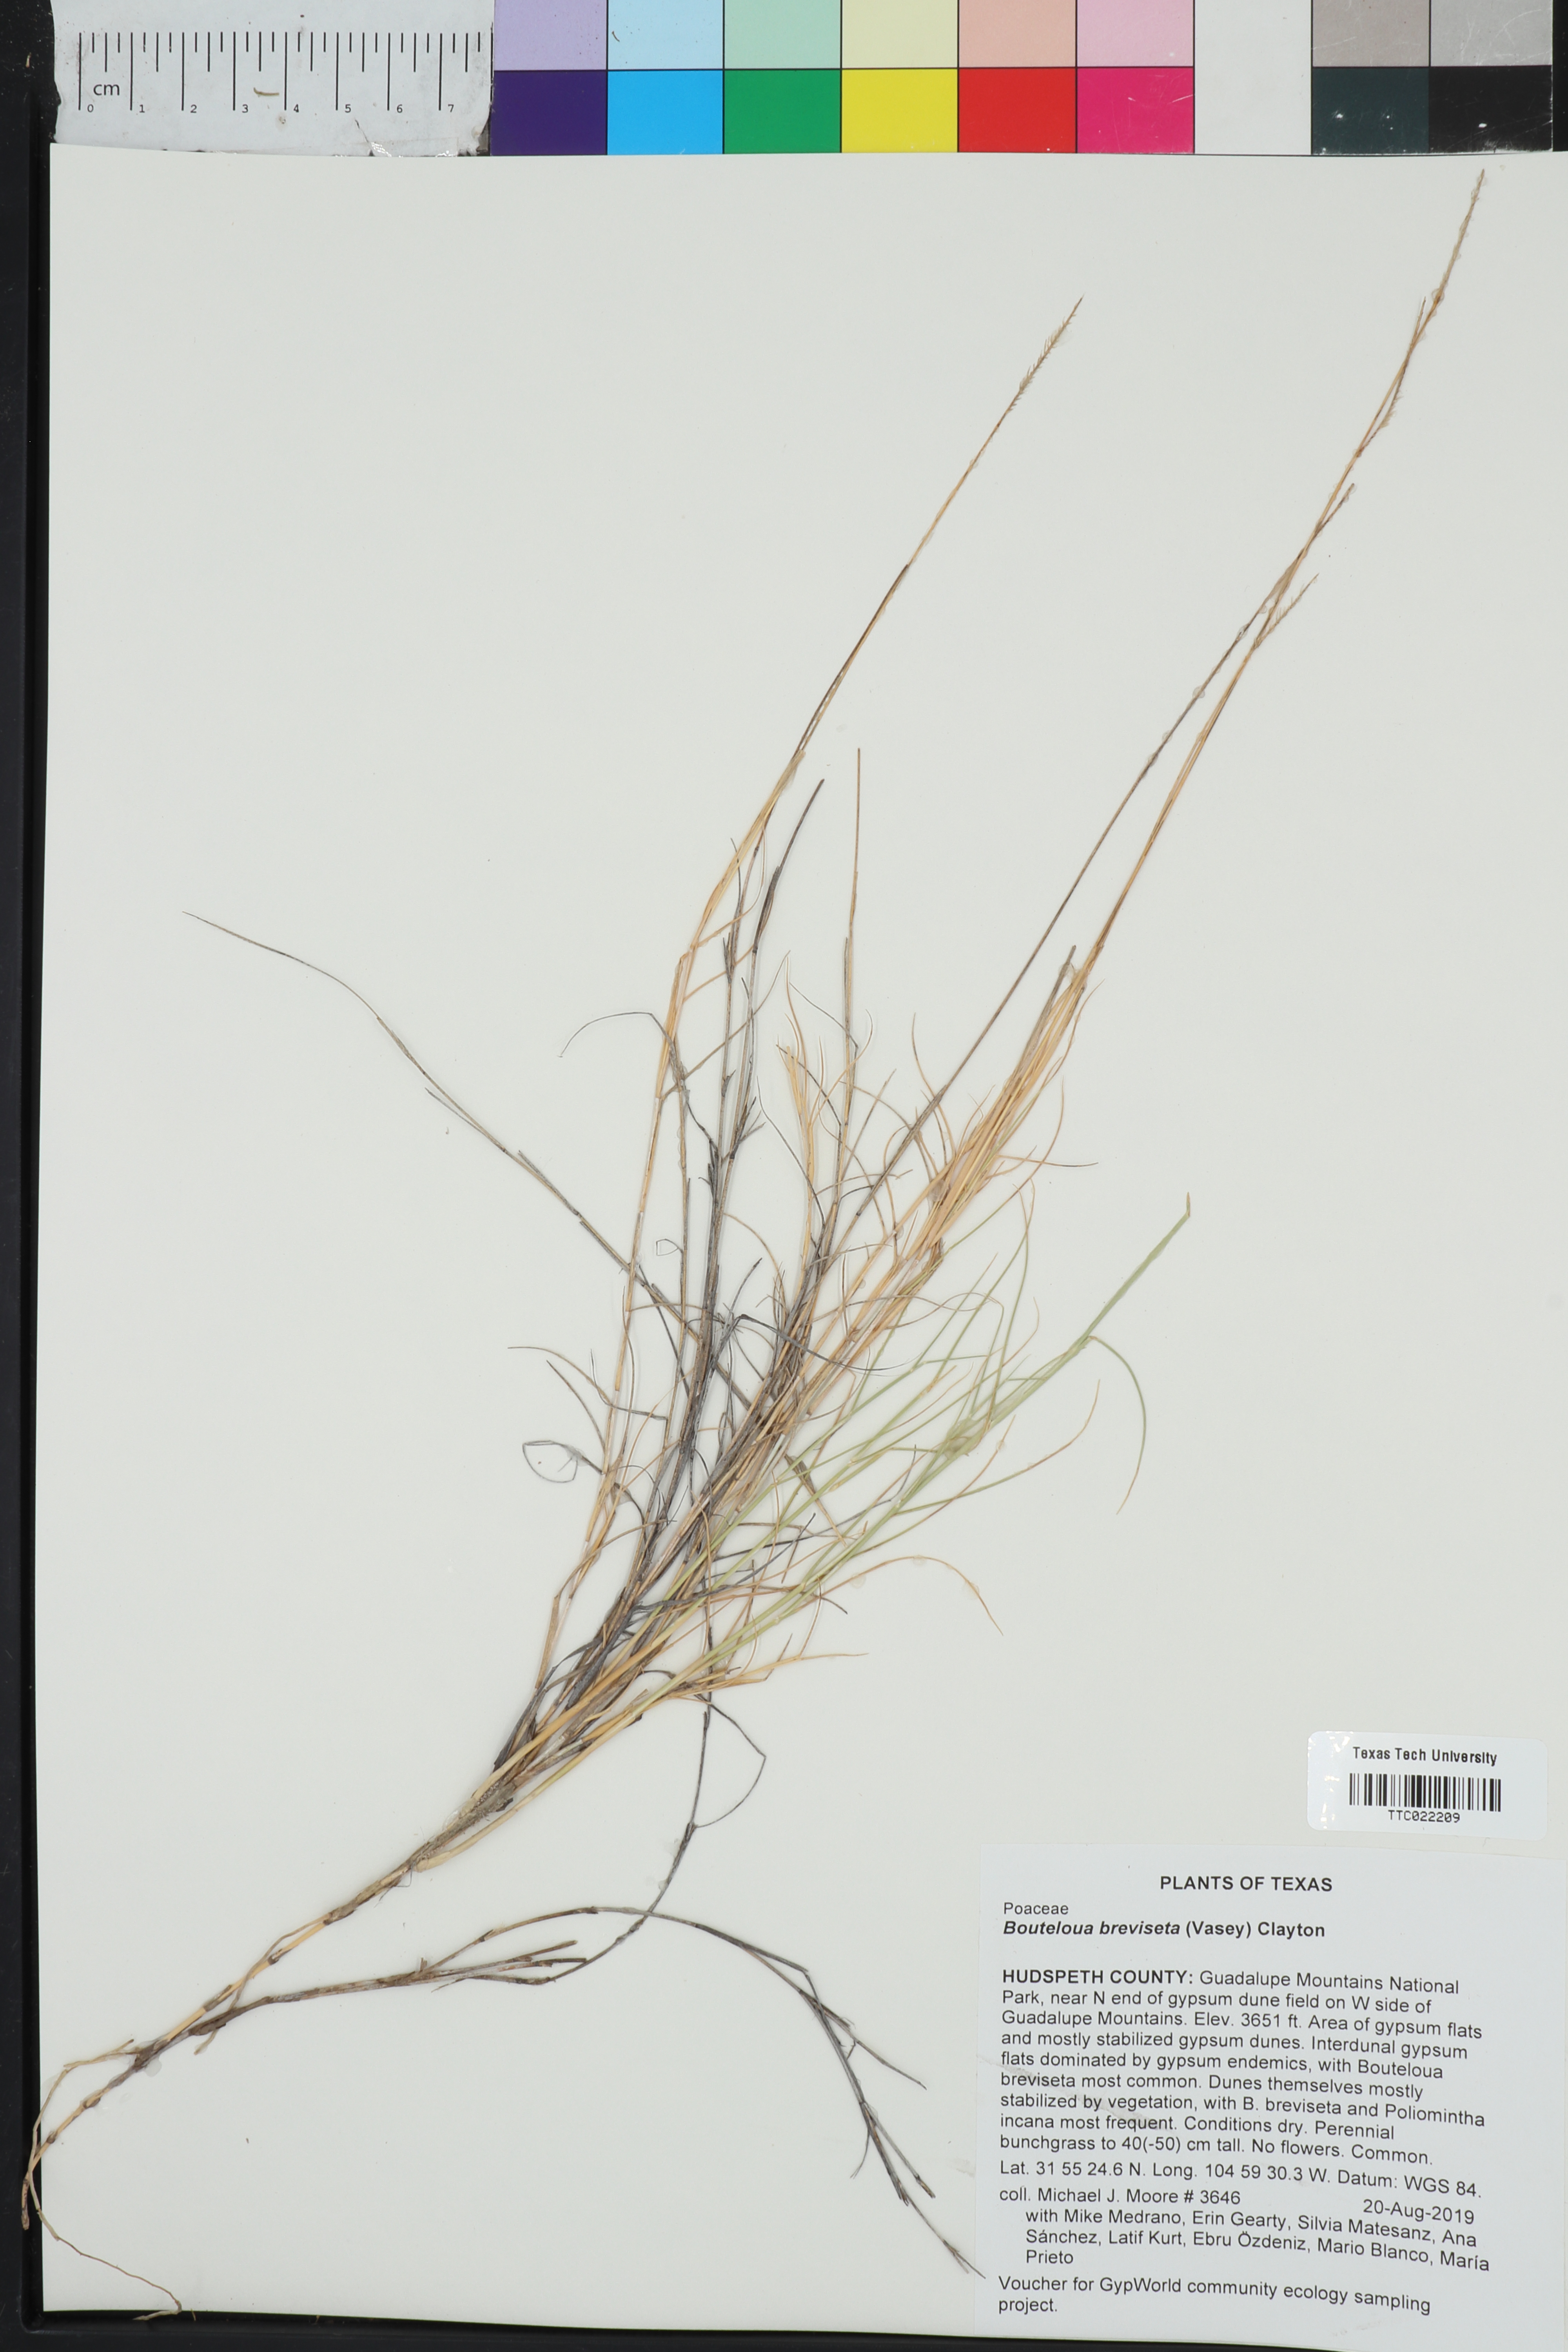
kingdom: Plantae
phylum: Tracheophyta
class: Liliopsida
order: Poales
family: Poaceae
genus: Bouteloua
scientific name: Bouteloua breviseta
